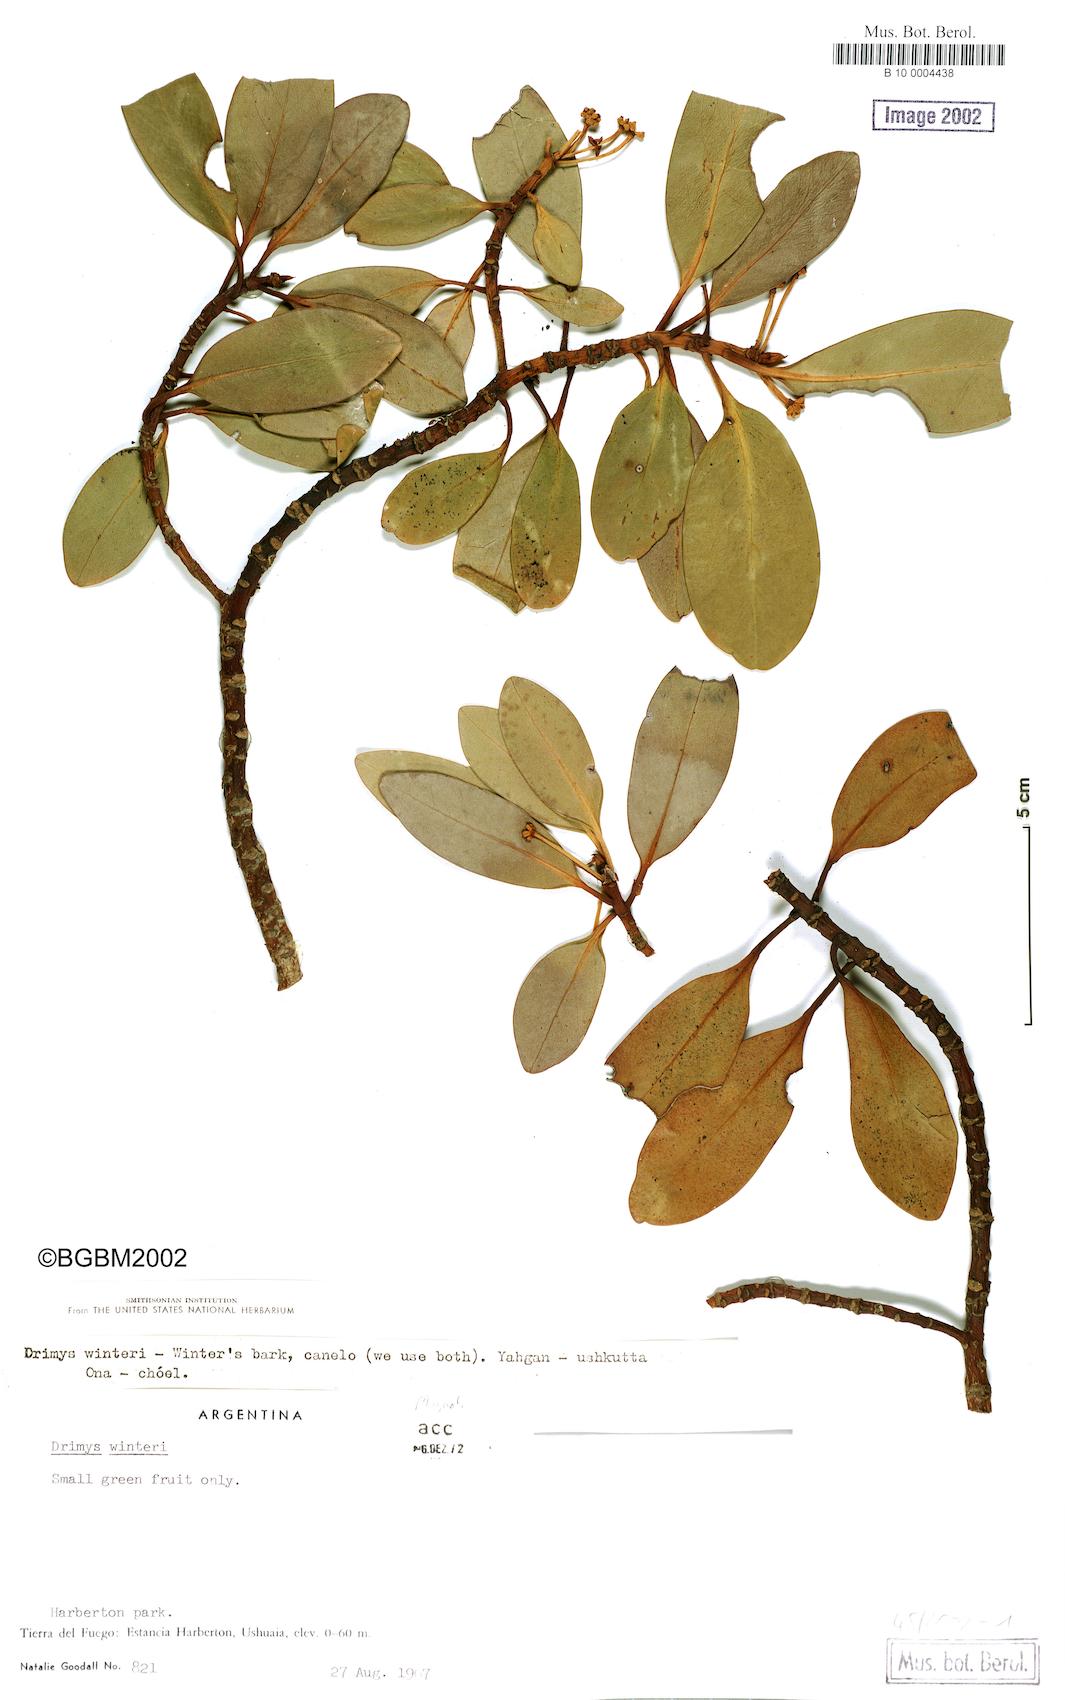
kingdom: Plantae
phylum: Tracheophyta
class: Magnoliopsida
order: Canellales
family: Winteraceae
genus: Drimys
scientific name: Drimys winteri
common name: Winter's-bark
